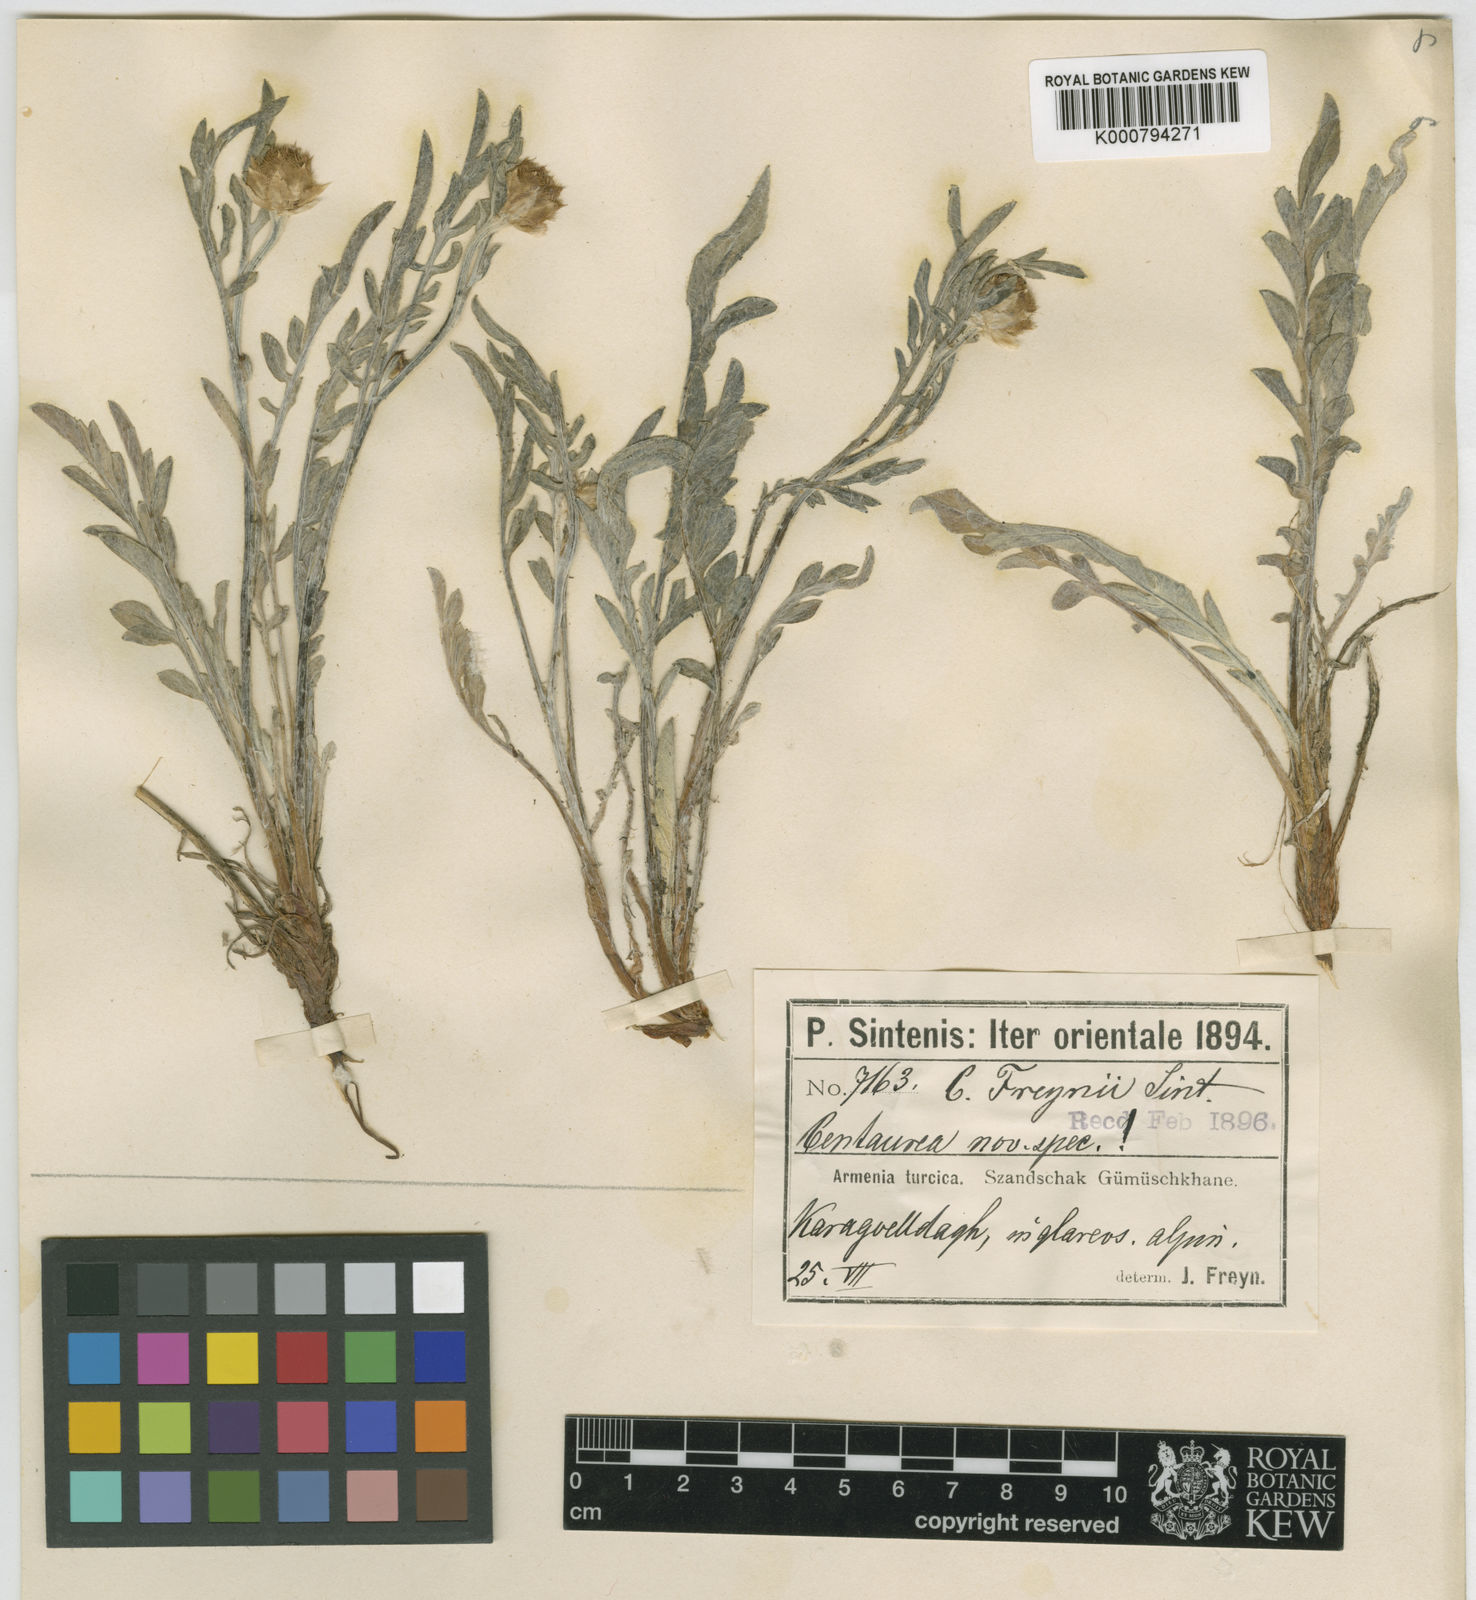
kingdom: Plantae
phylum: Tracheophyta
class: Magnoliopsida
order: Asterales
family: Asteraceae
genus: Psephellus
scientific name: Psephellus freynii
